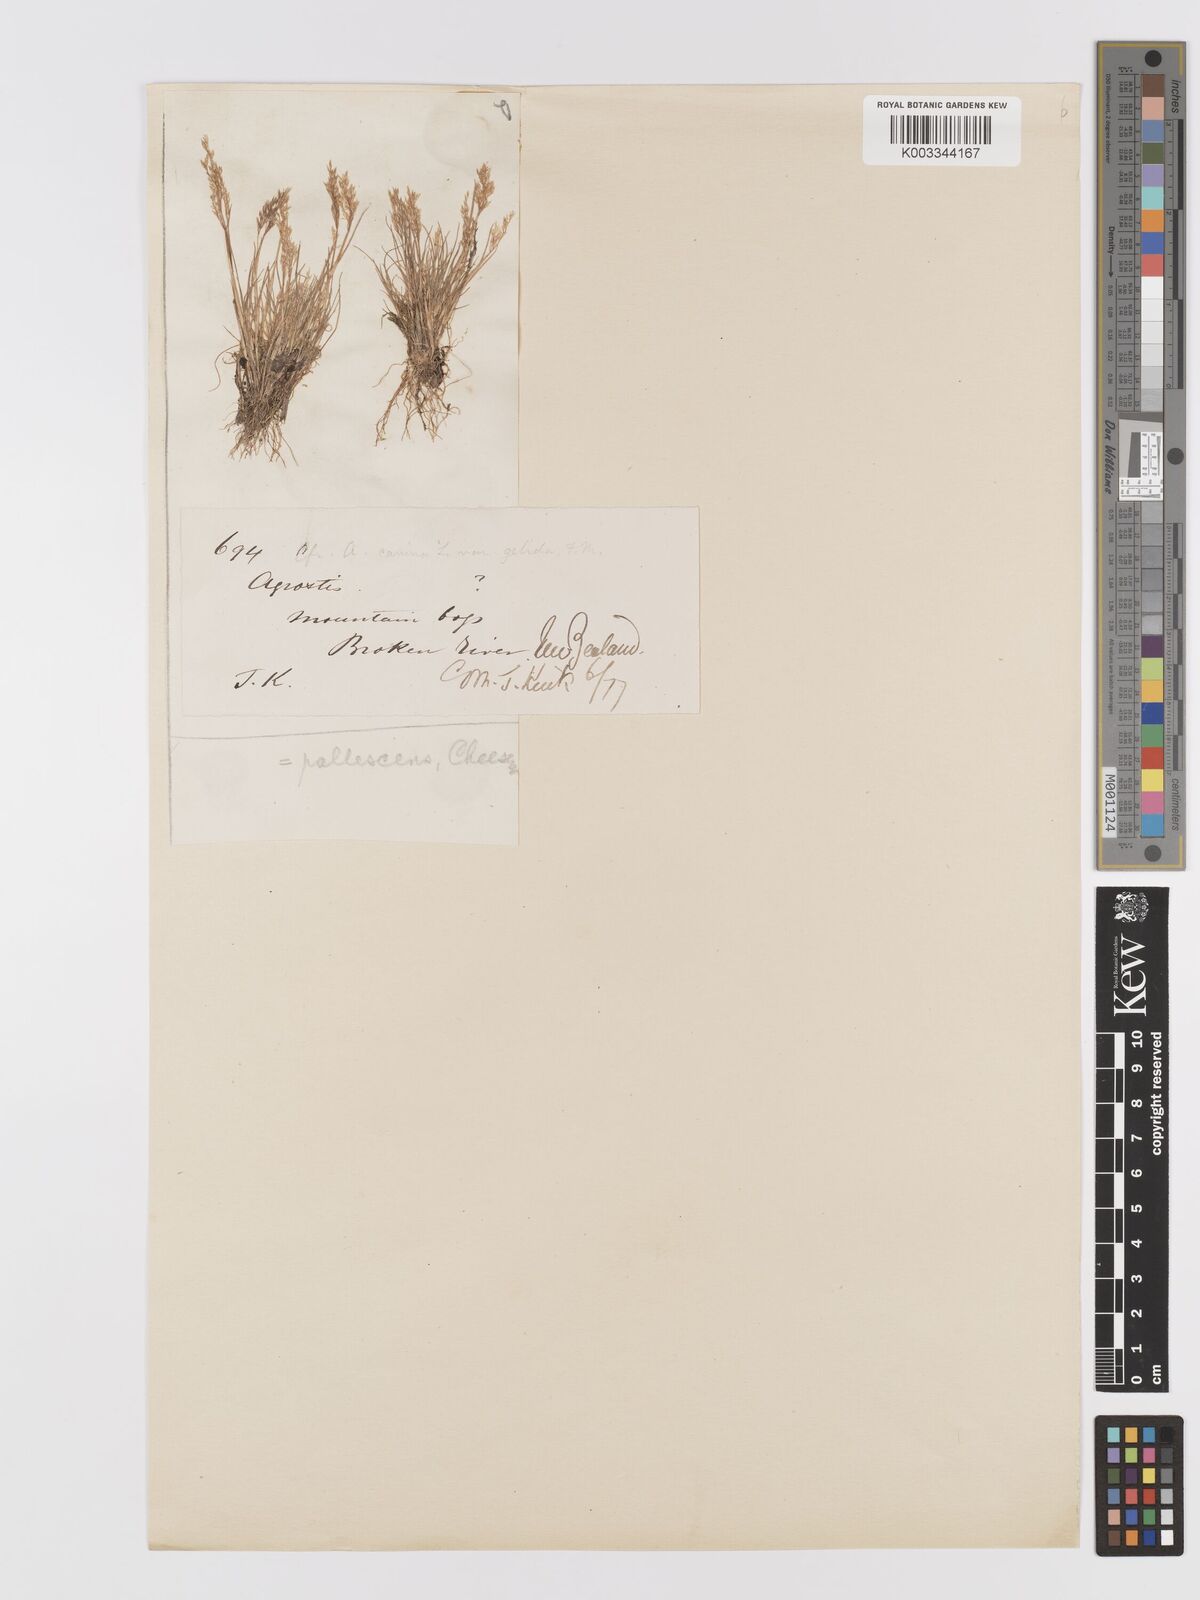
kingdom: Plantae
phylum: Tracheophyta
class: Liliopsida
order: Poales
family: Poaceae
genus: Agrostis
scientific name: Agrostis pallescens
